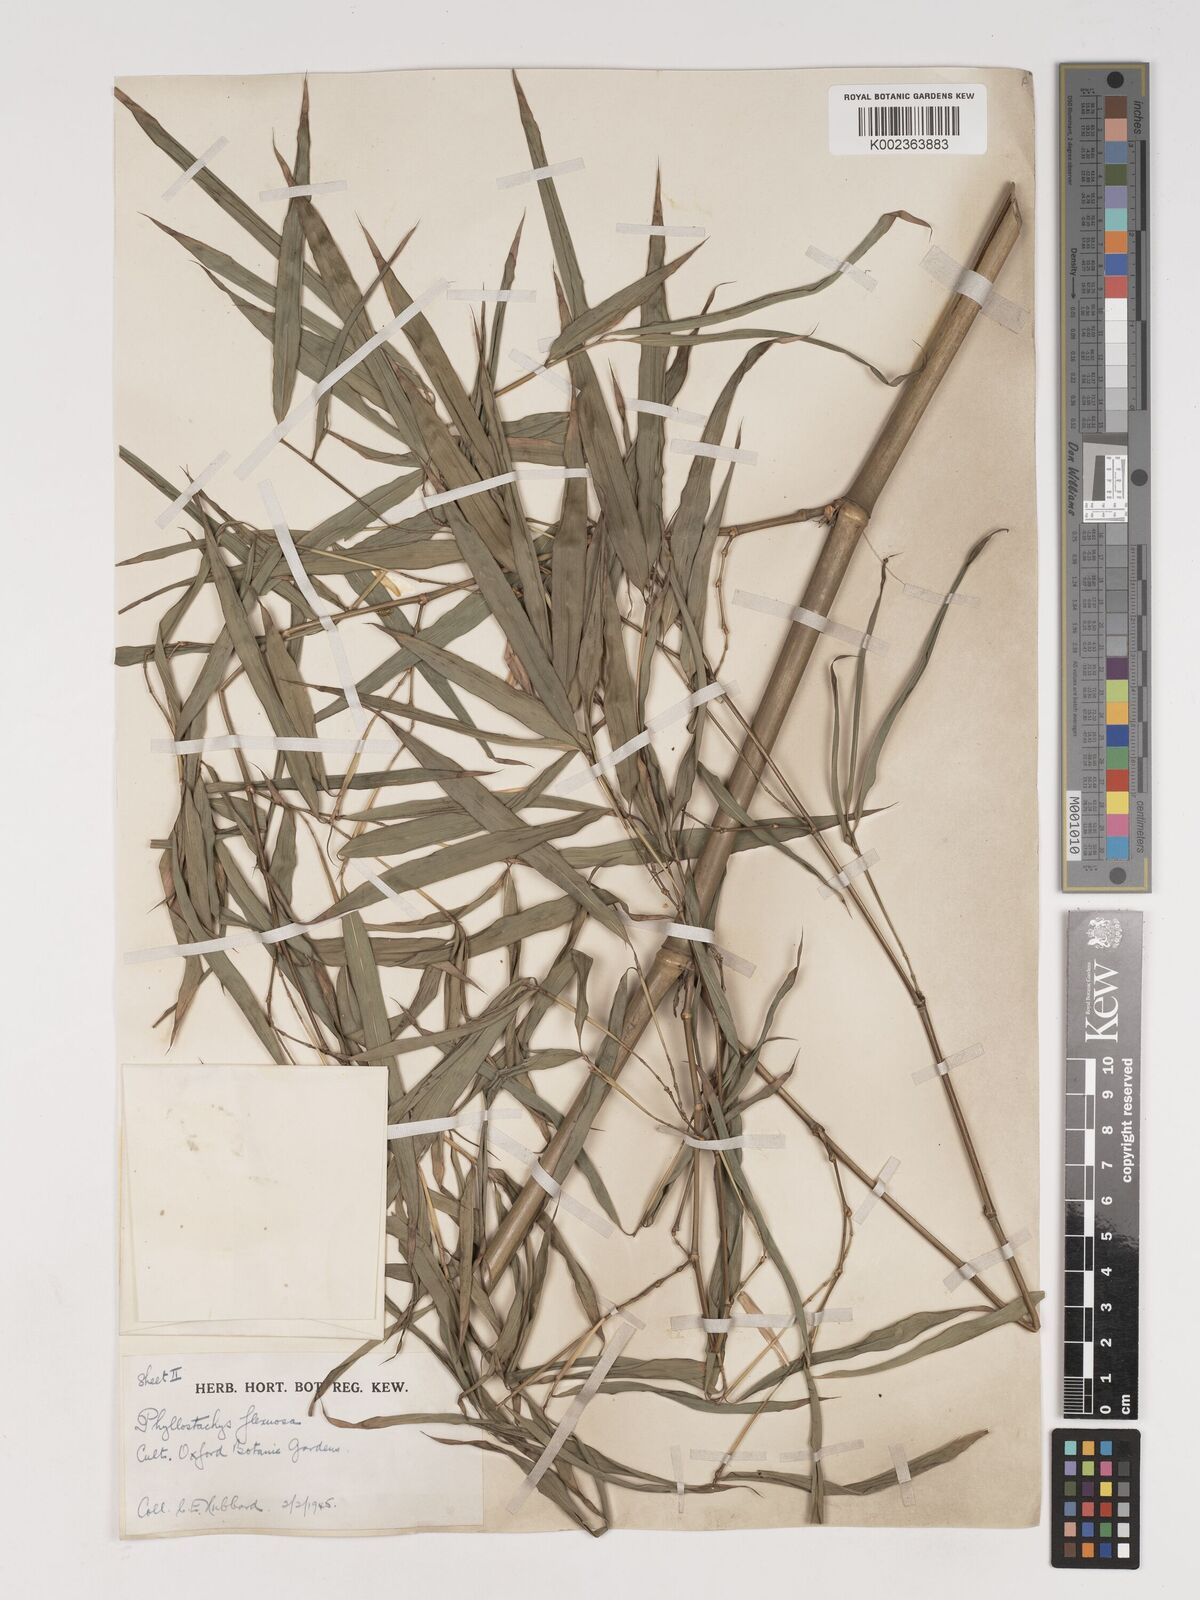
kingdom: Plantae
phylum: Tracheophyta
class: Liliopsida
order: Poales
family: Poaceae
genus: Phyllostachys
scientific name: Phyllostachys flexuosa
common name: Drooping timber bamboo
